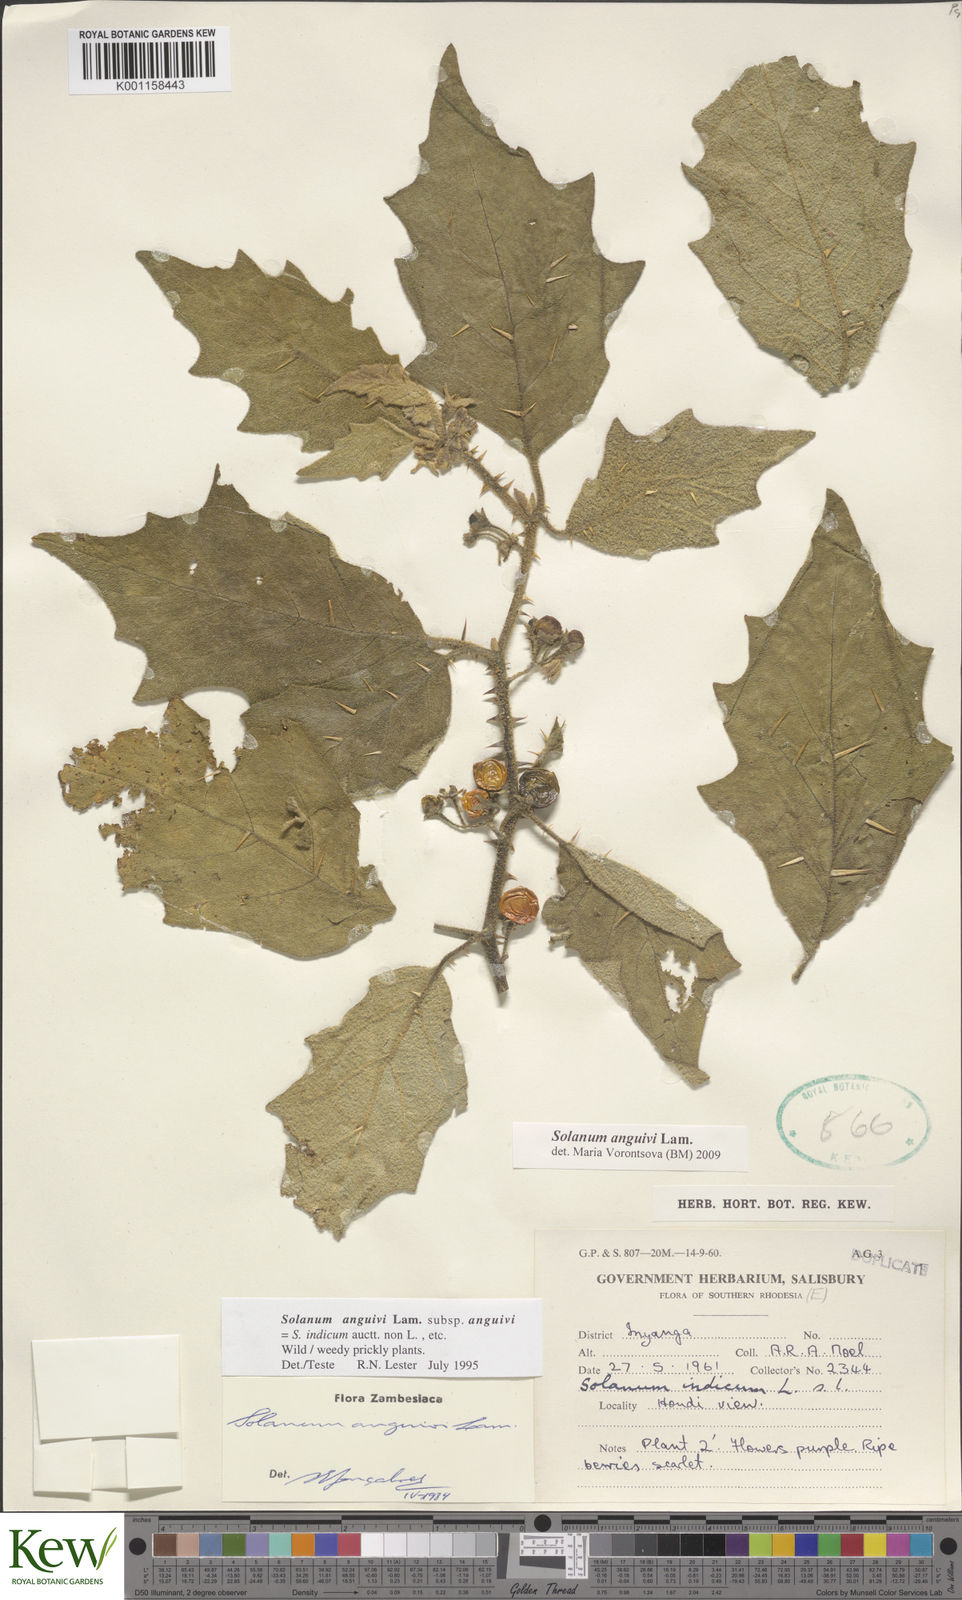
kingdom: Plantae
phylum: Tracheophyta
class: Magnoliopsida
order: Solanales
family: Solanaceae
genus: Solanum
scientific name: Solanum anguivi
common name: Forest bitterberry
